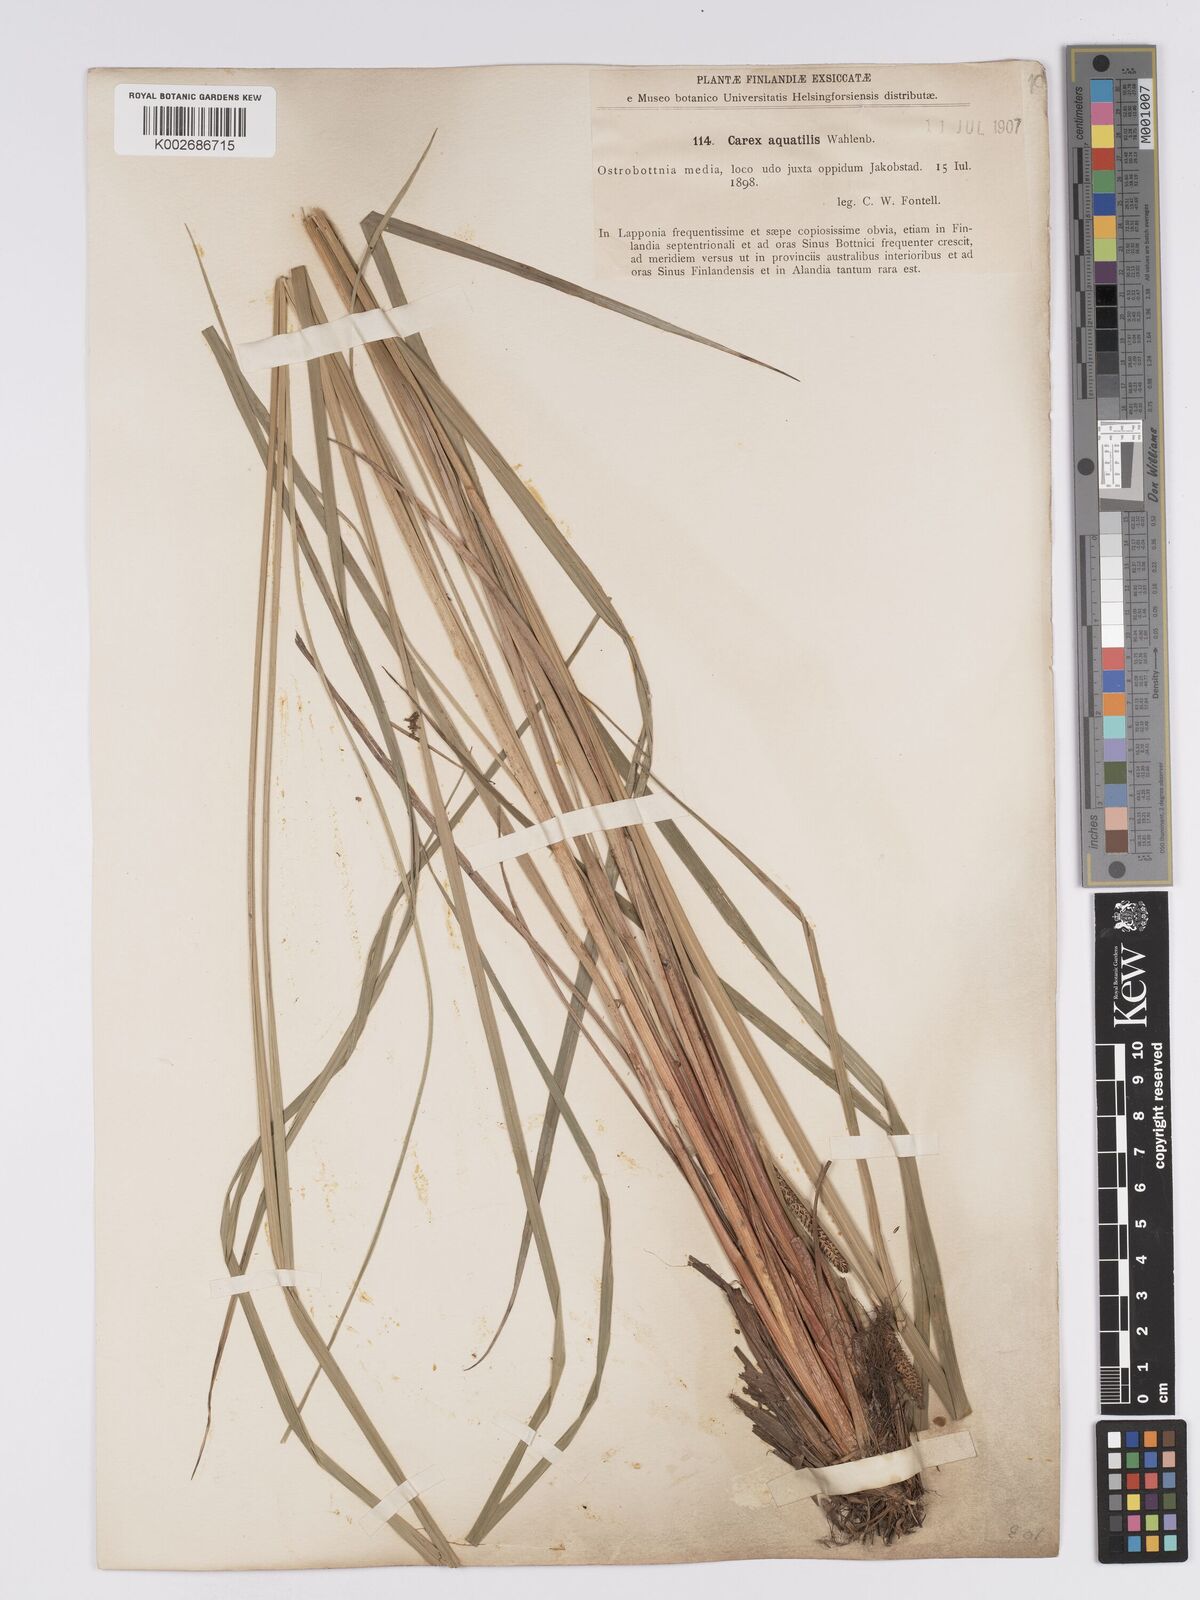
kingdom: Plantae
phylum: Tracheophyta
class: Liliopsida
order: Poales
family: Cyperaceae
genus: Carex
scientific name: Carex aquatilis
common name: Water sedge
